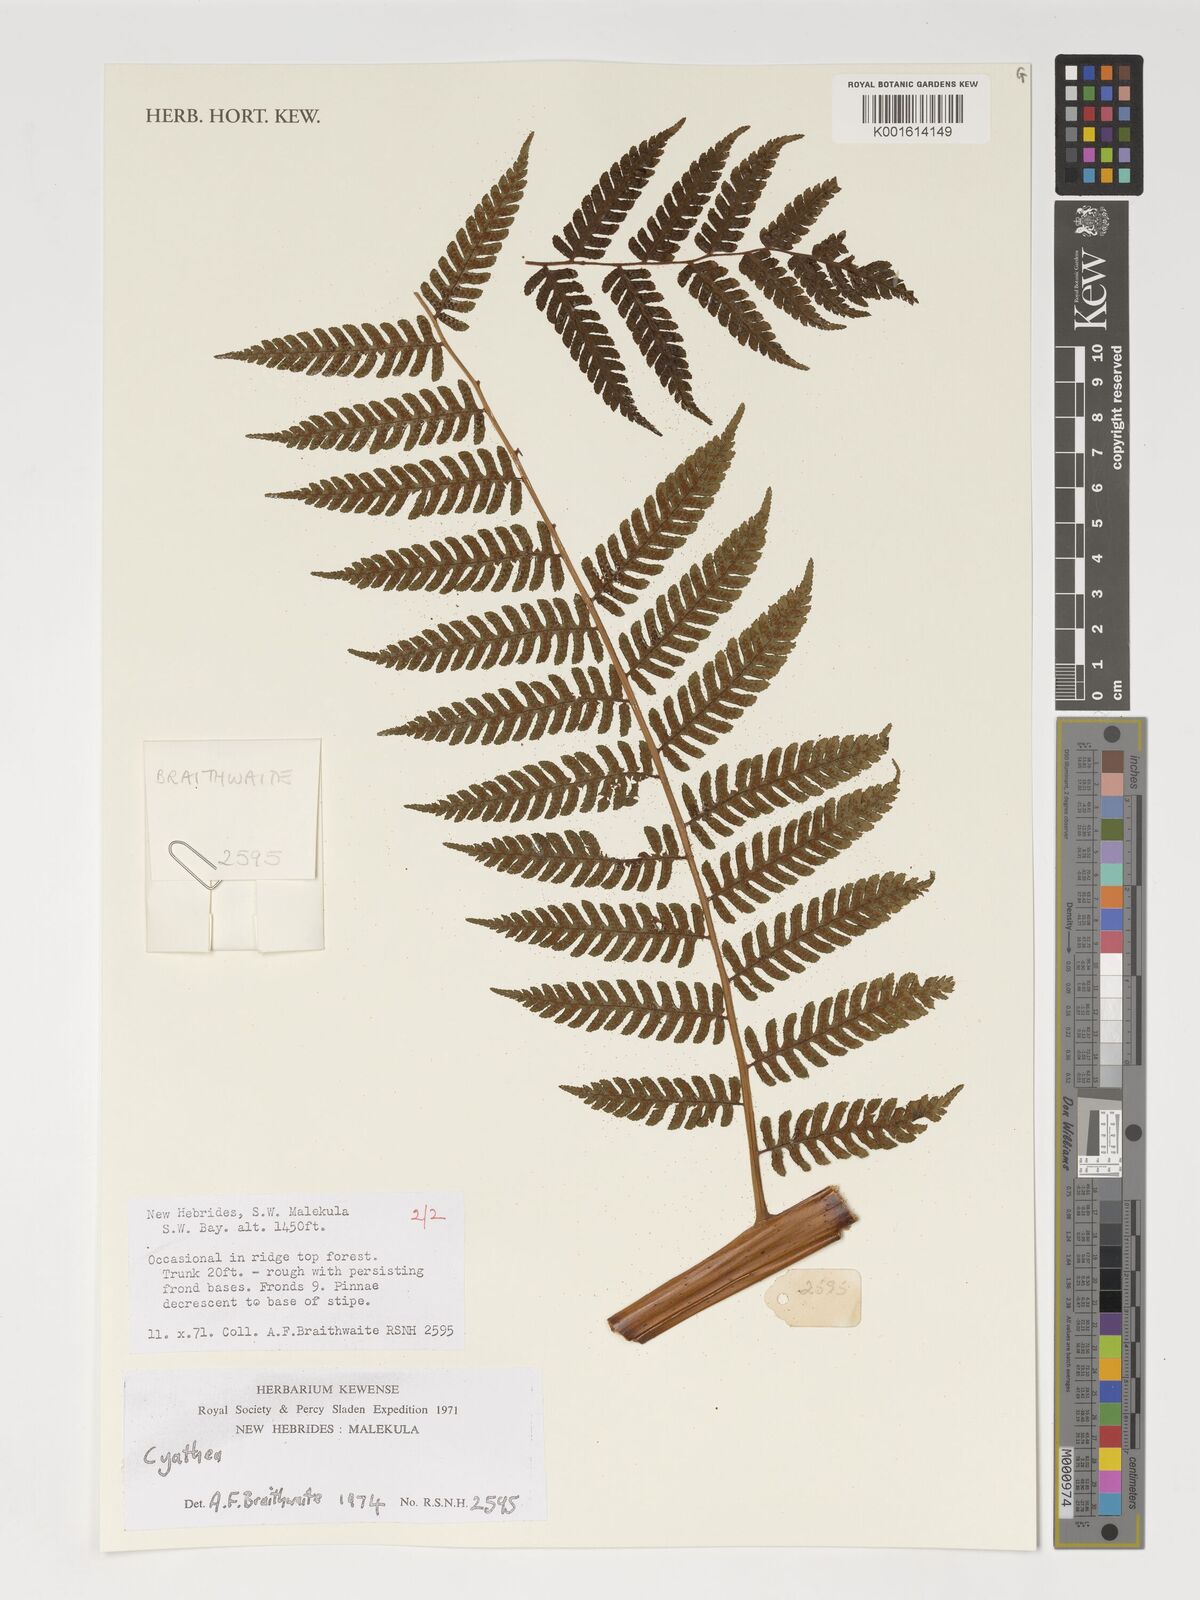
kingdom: Plantae
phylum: Tracheophyta
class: Polypodiopsida
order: Cyatheales
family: Cyatheaceae
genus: Cyathea
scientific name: Cyathea
